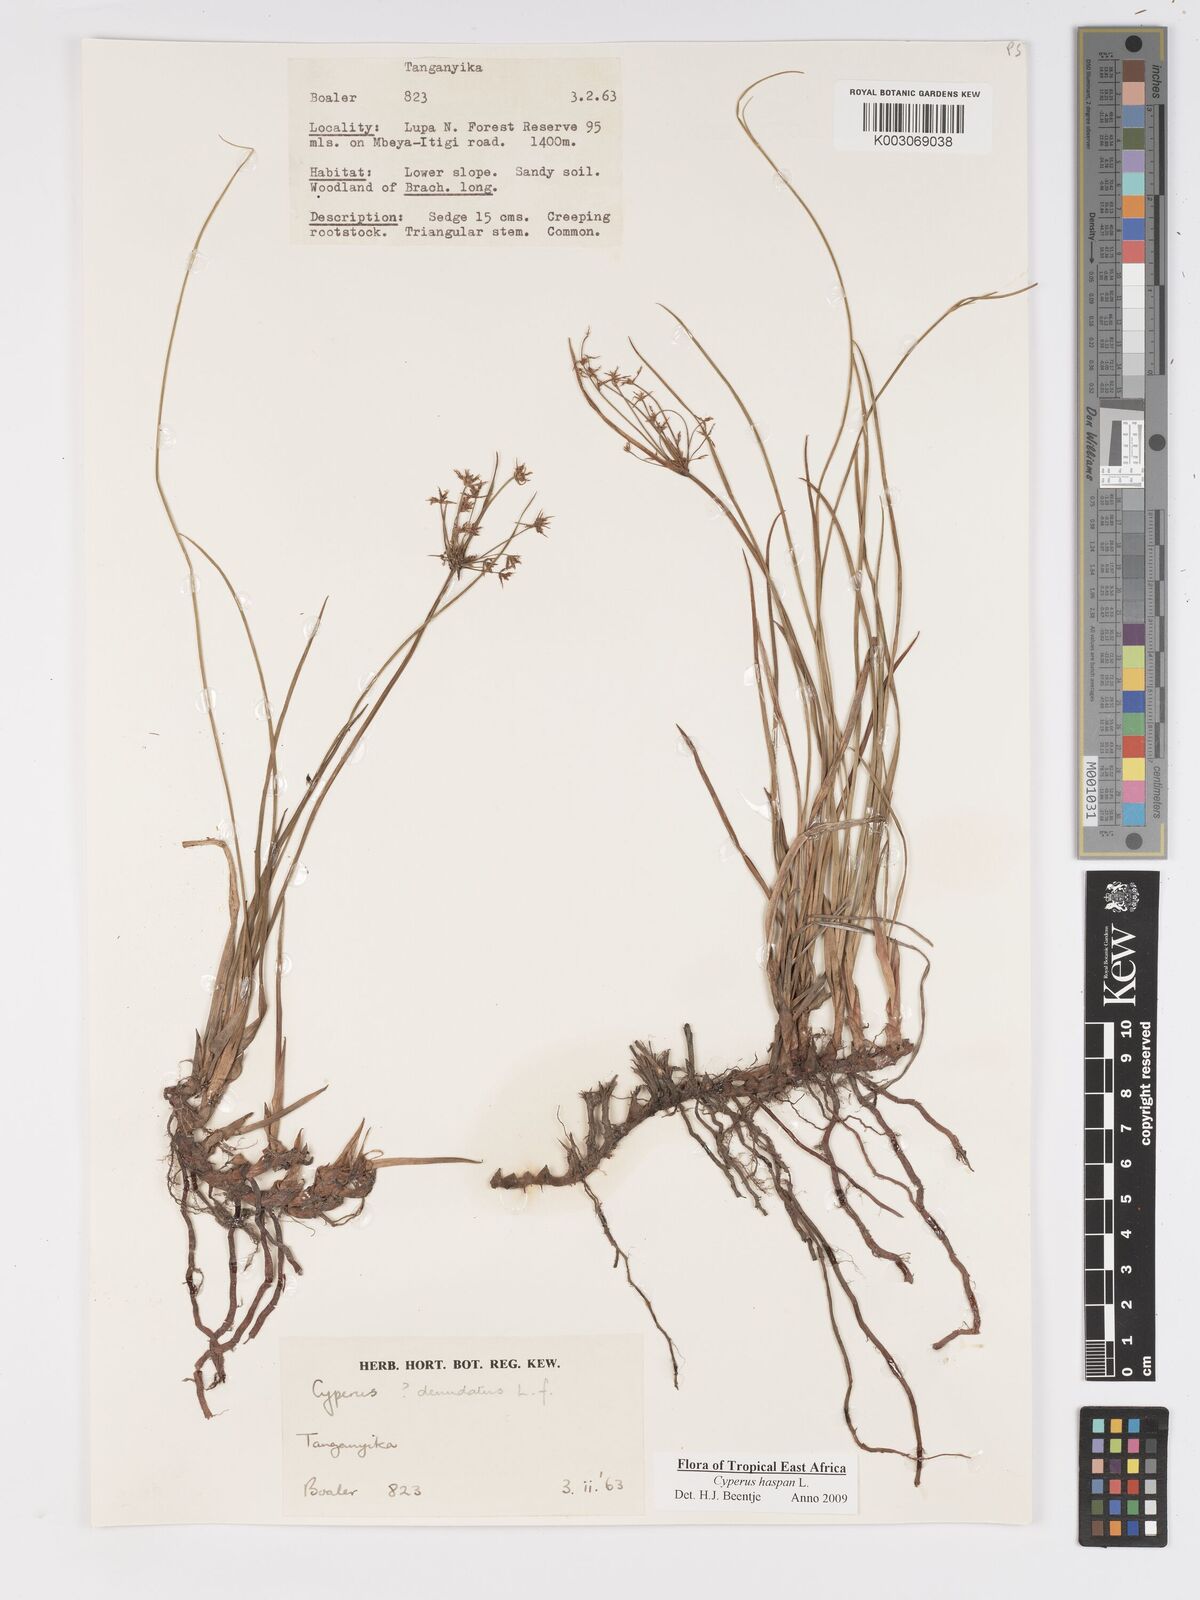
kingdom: Plantae
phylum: Tracheophyta
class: Liliopsida
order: Poales
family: Cyperaceae
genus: Cyperus
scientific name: Cyperus haspan
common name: Haspan flatsedge
